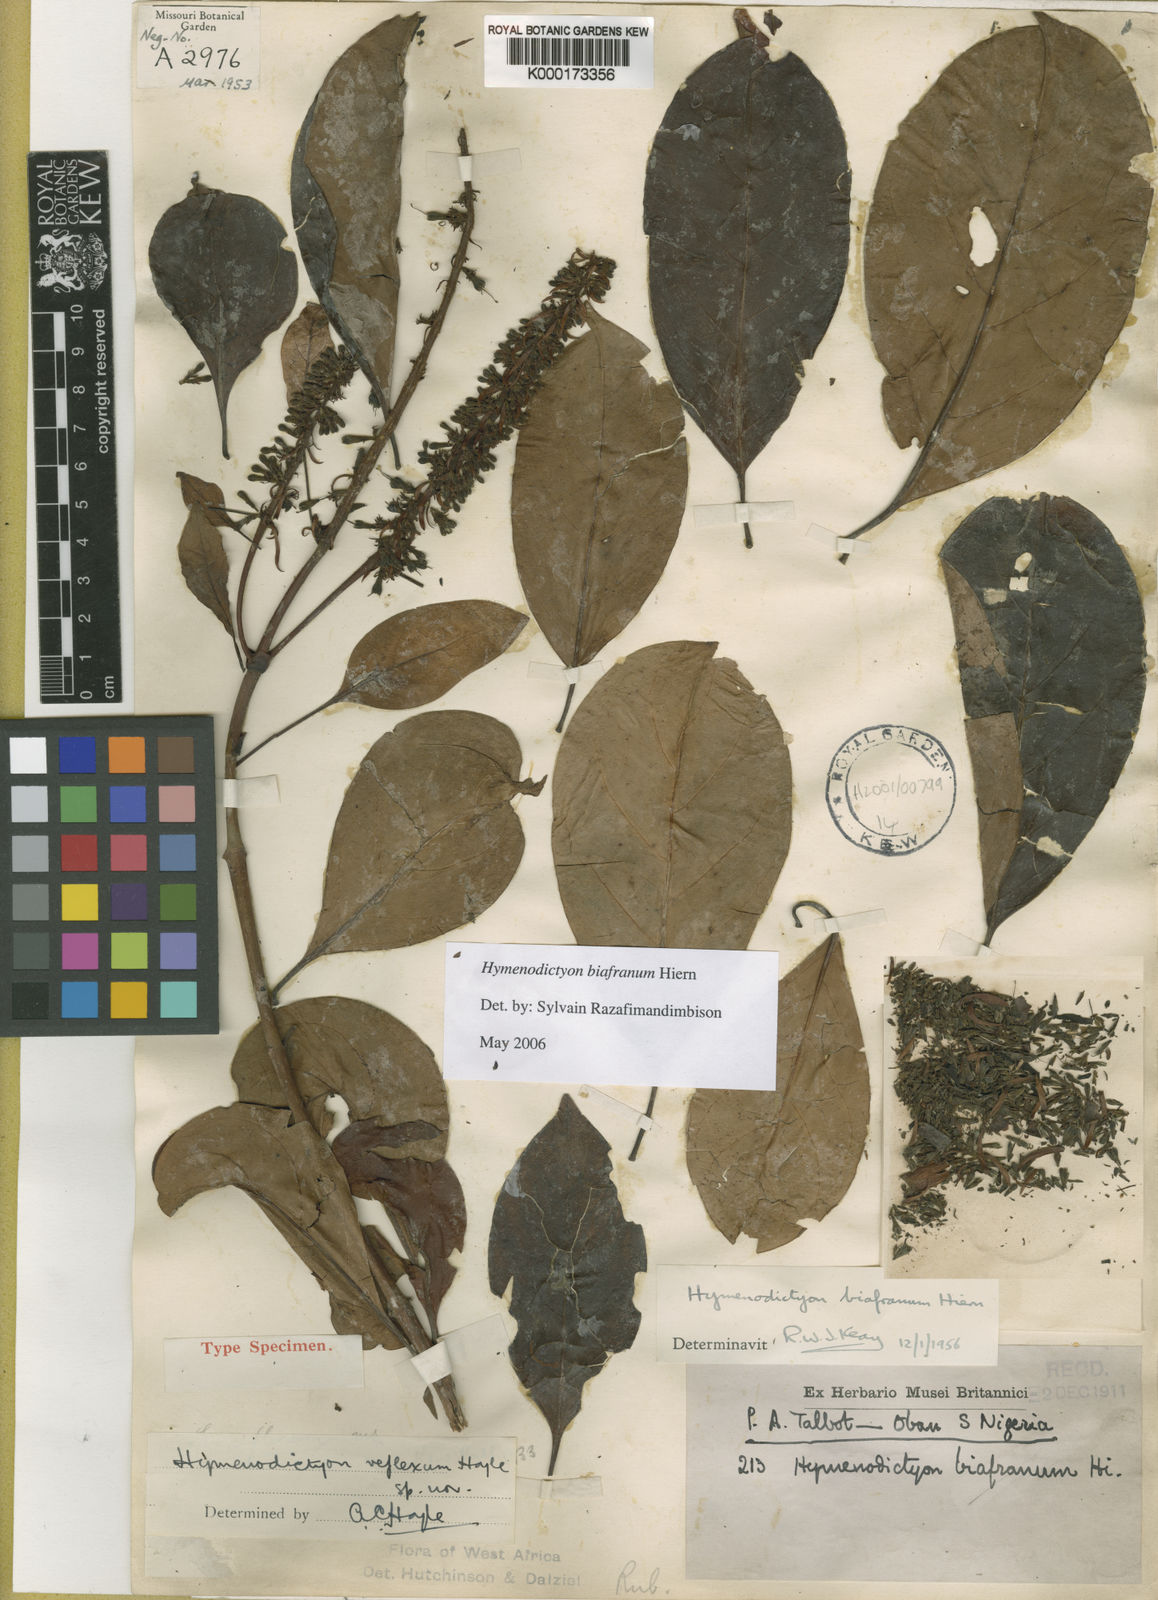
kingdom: Plantae
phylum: Tracheophyta
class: Magnoliopsida
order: Gentianales
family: Rubiaceae
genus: Hymenodictyon
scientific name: Hymenodictyon biafranum
